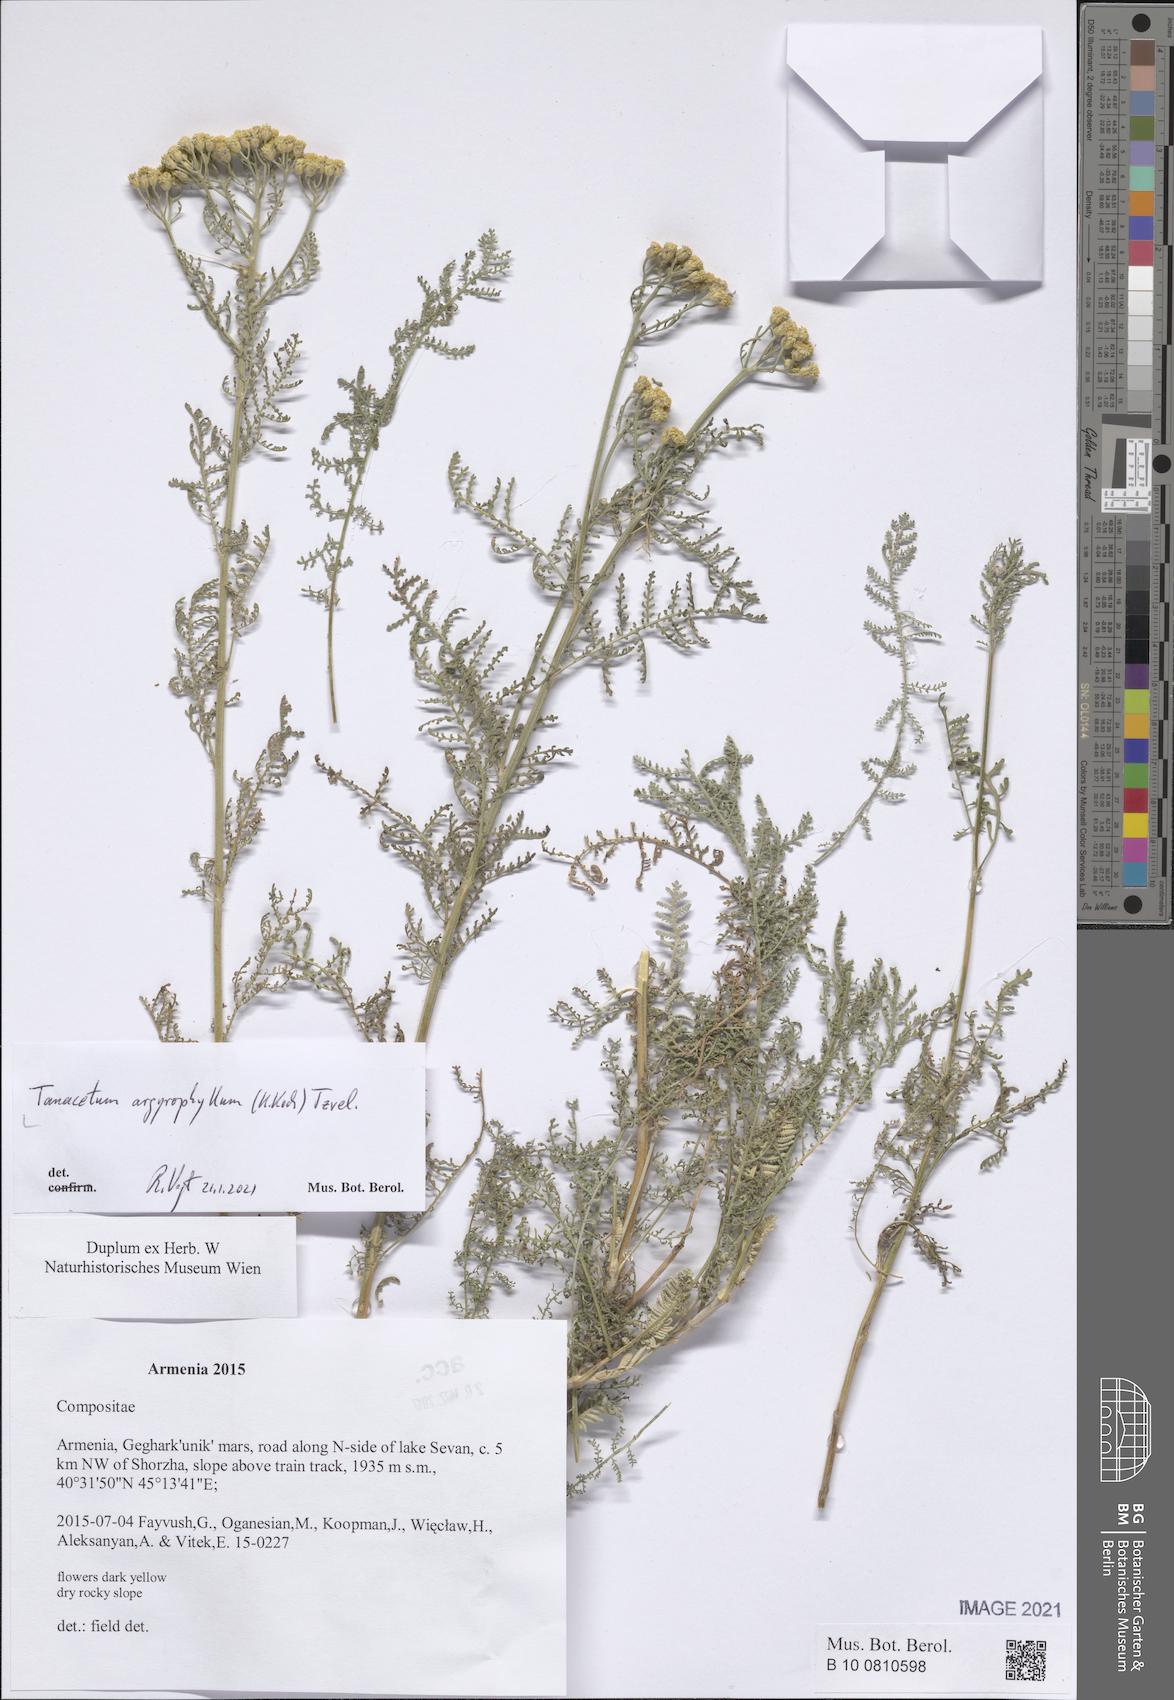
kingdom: Plantae
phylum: Tracheophyta
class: Magnoliopsida
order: Asterales
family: Asteraceae
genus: Tanacetum
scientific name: Tanacetum polycephalum
